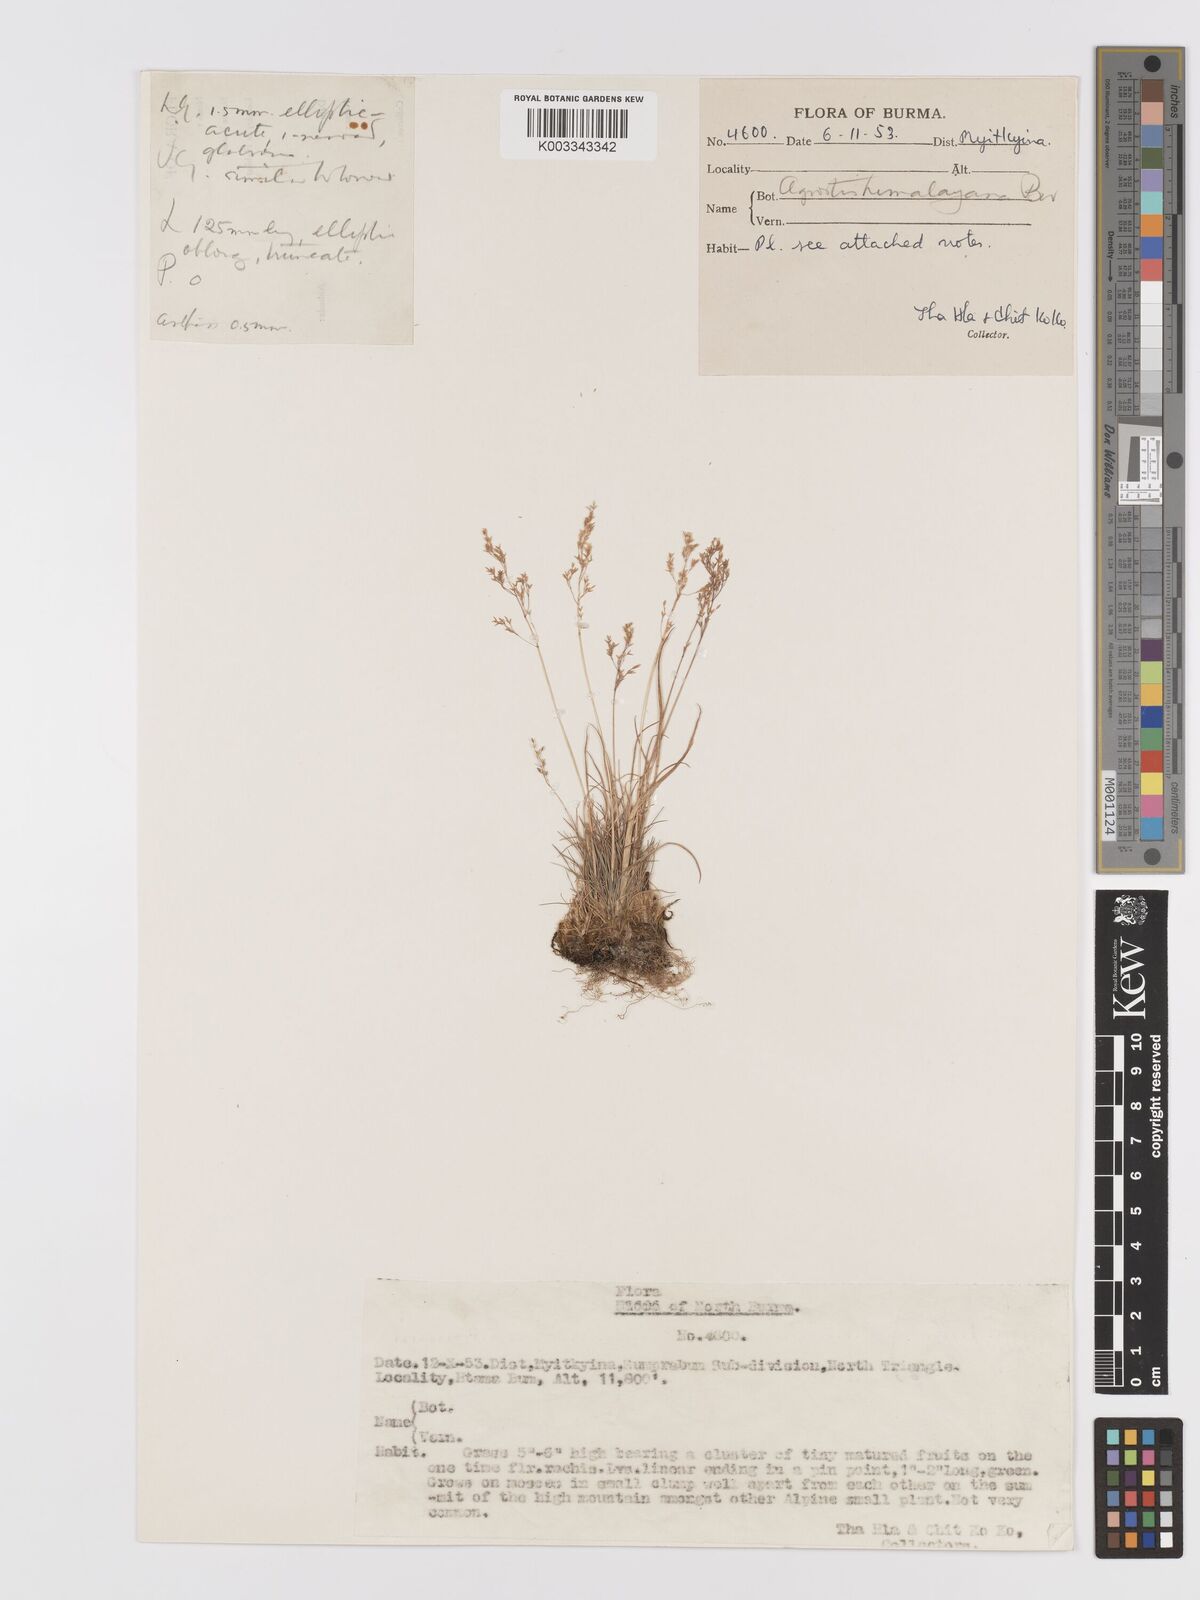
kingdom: Plantae
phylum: Tracheophyta
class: Liliopsida
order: Poales
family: Poaceae
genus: Agrostis
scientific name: Agrostis micrantha
